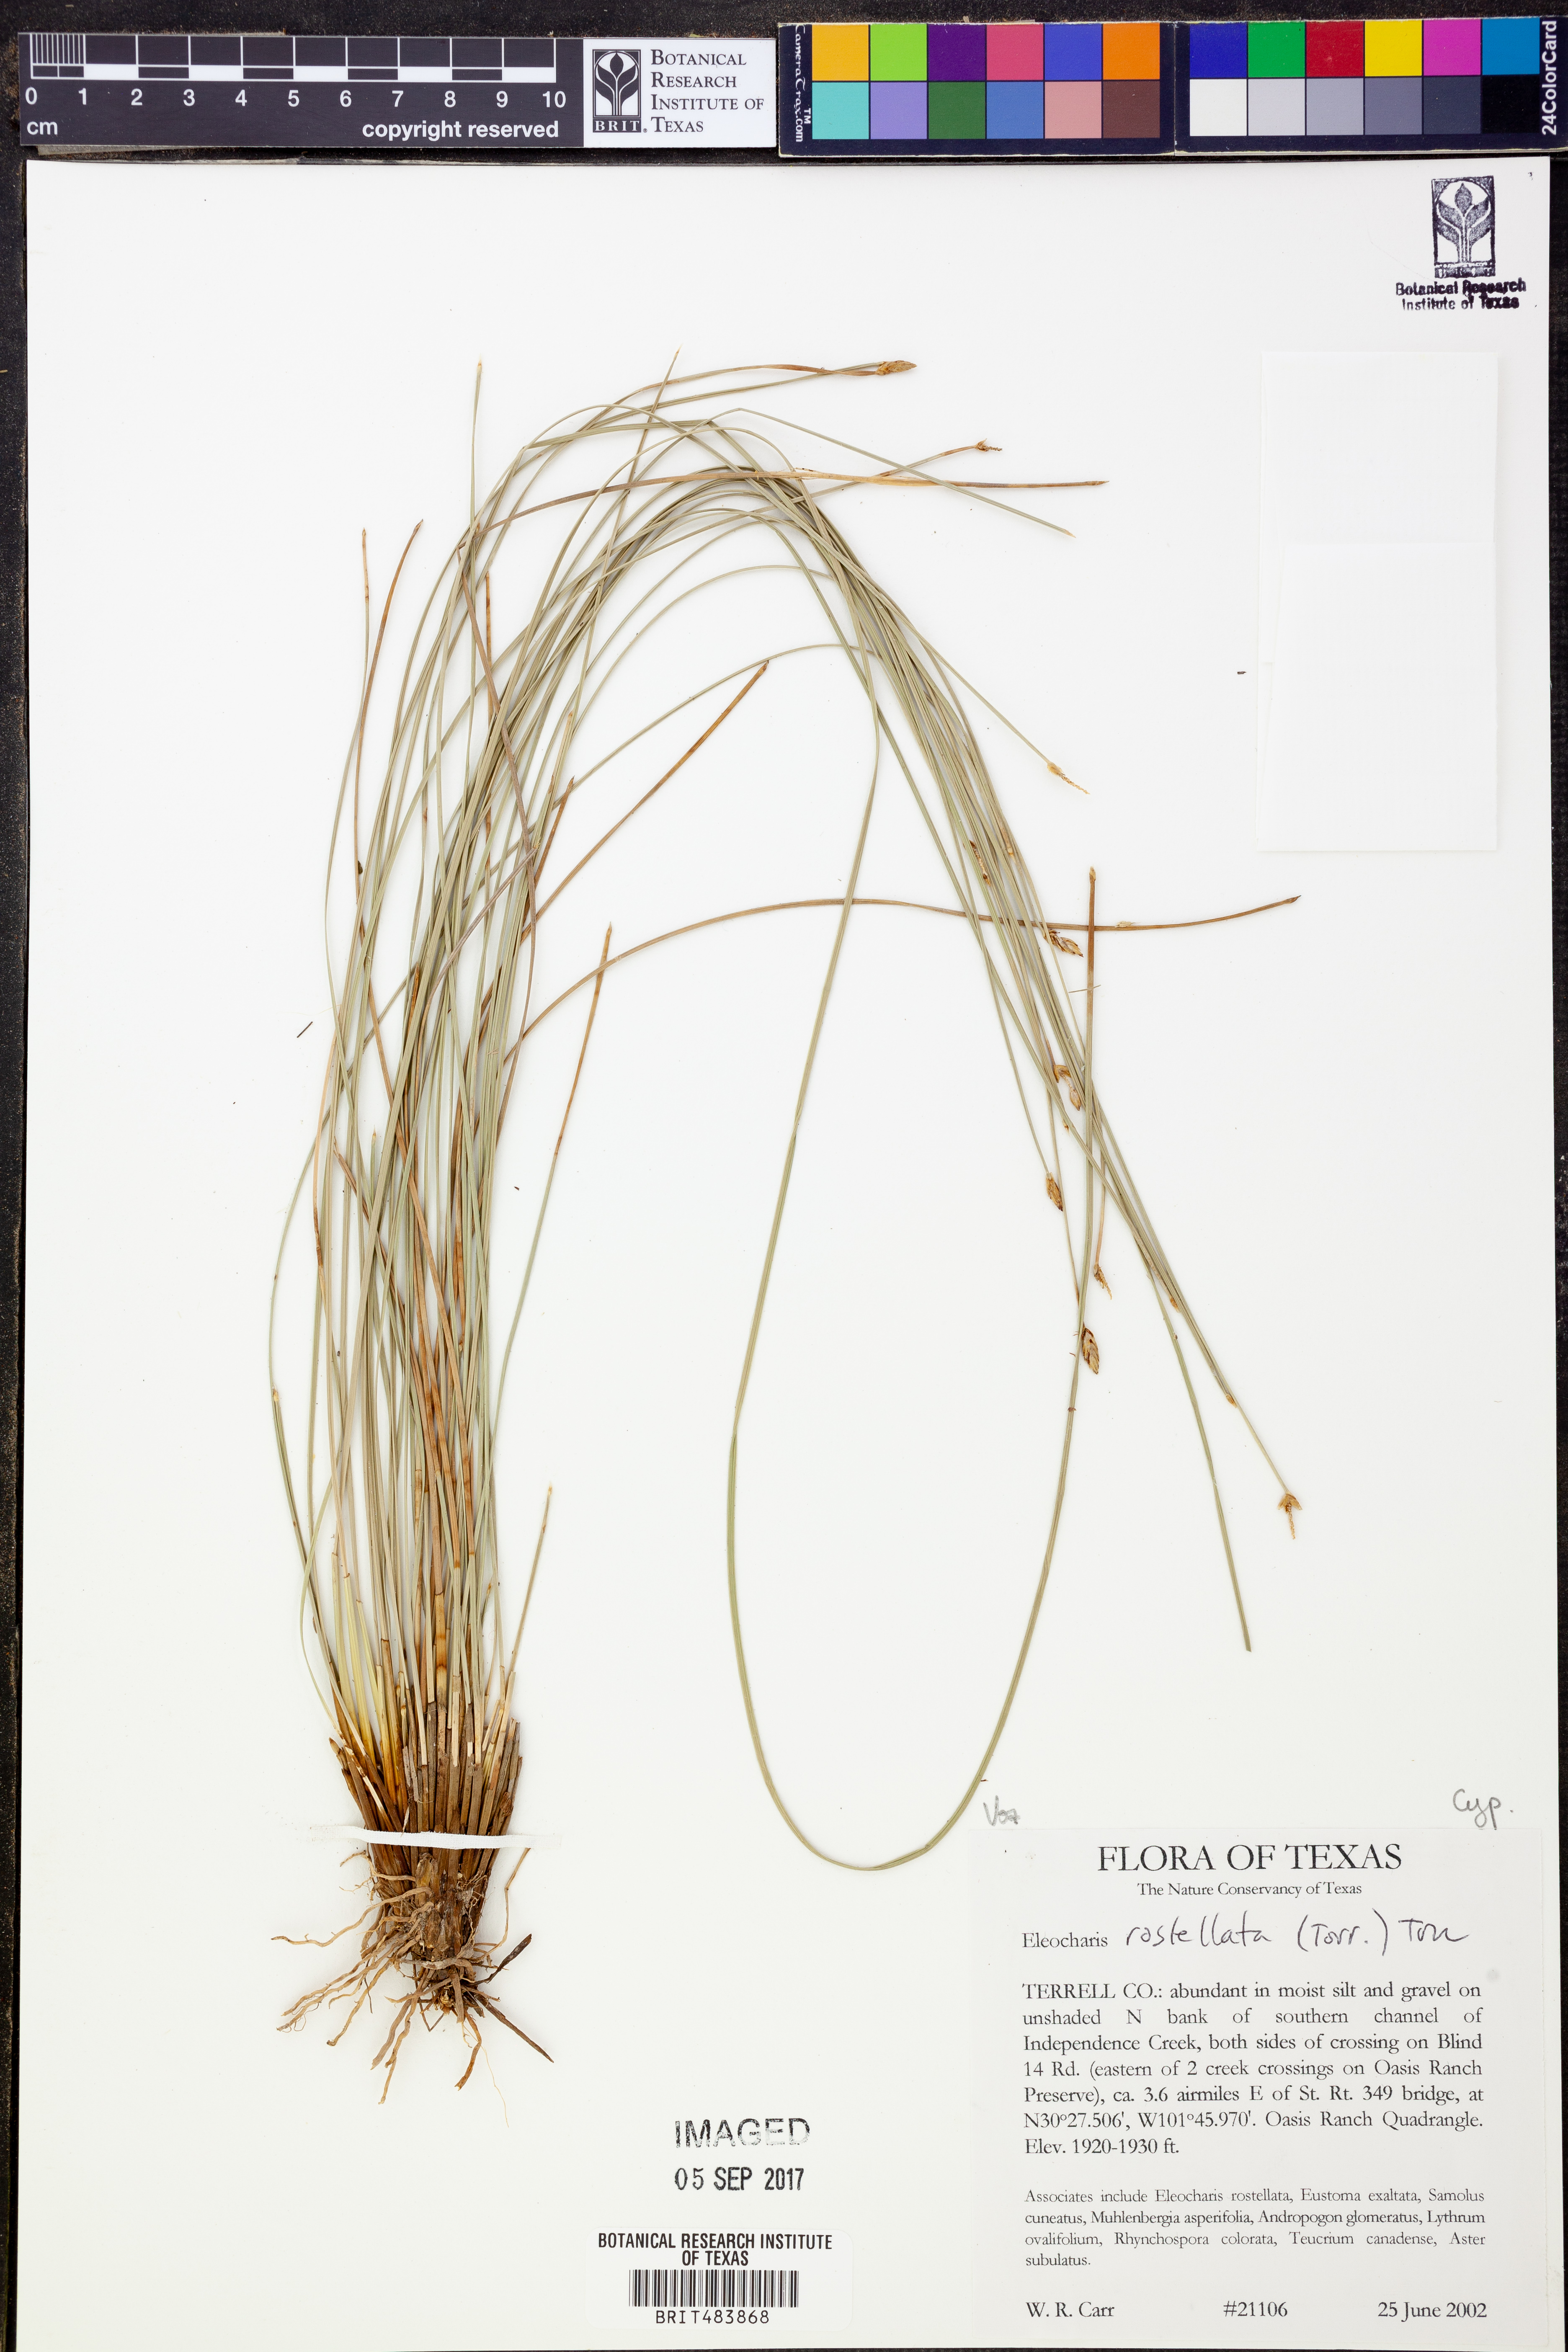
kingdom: Plantae
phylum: Tracheophyta
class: Liliopsida
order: Poales
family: Cyperaceae
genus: Eleocharis
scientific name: Eleocharis rostellata
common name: Walking sedge
